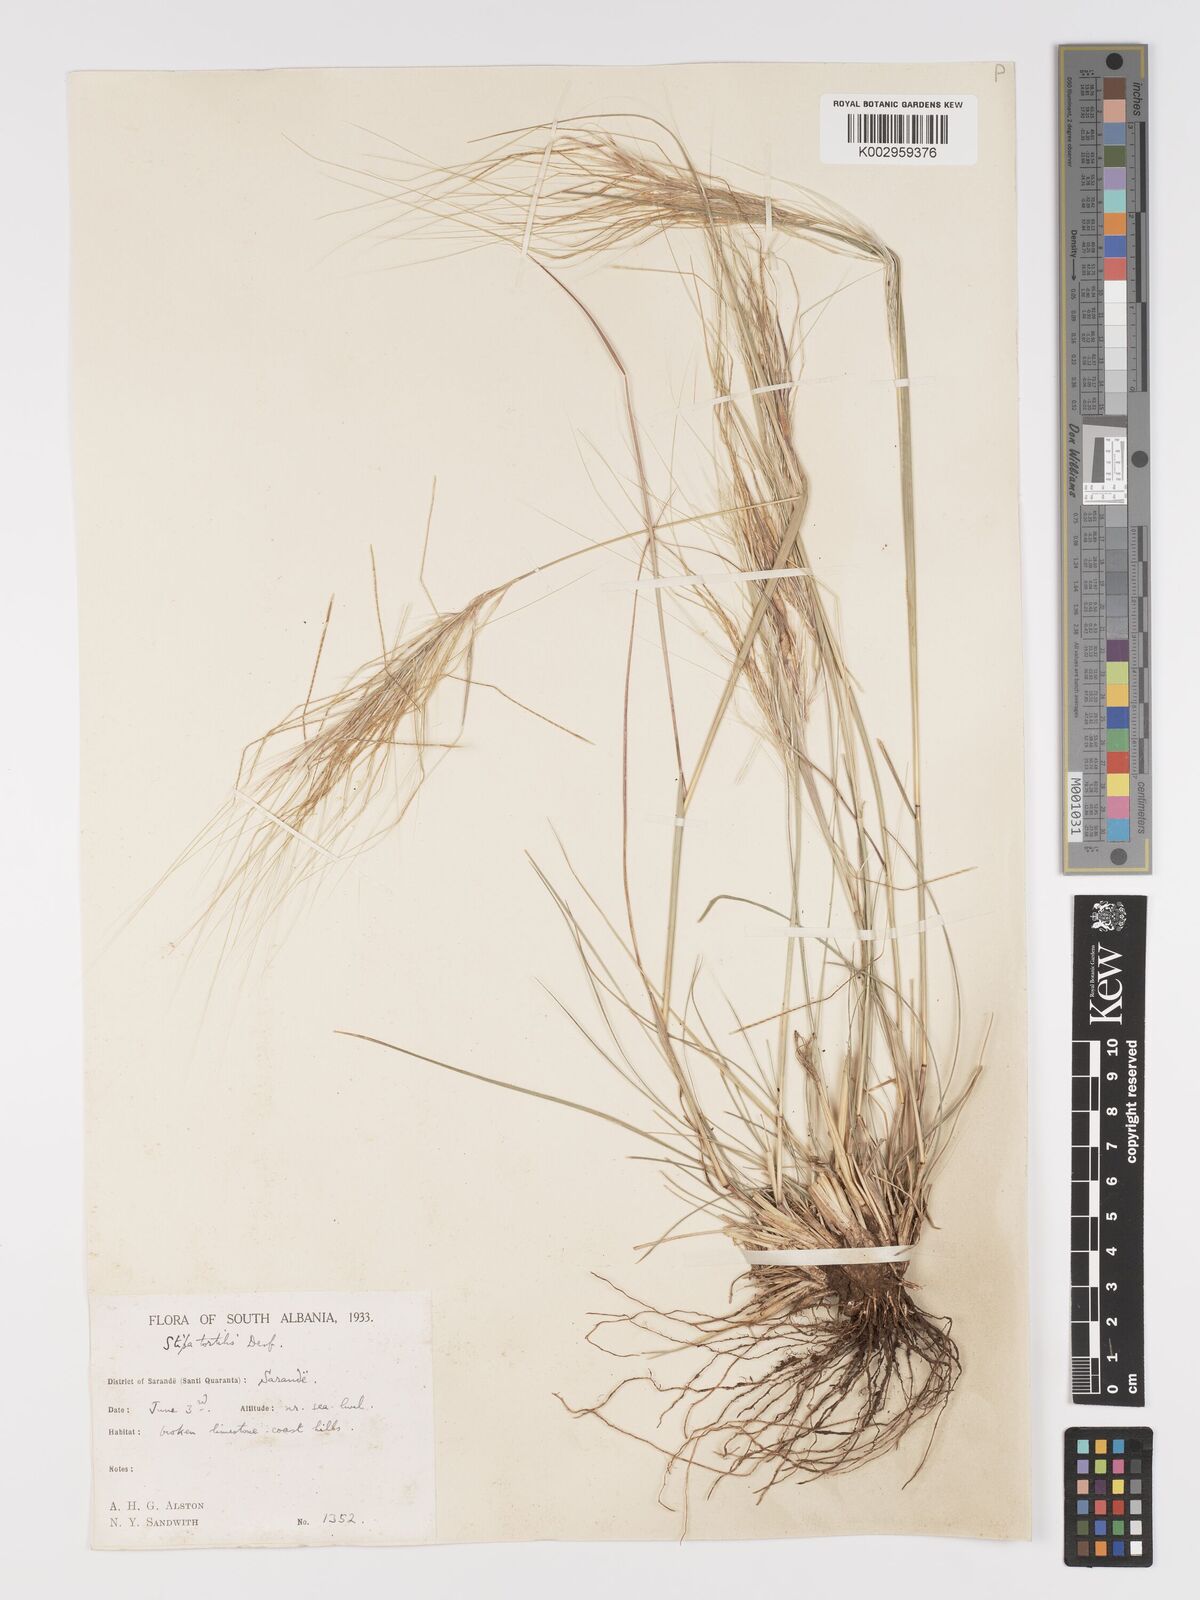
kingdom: Plantae
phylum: Tracheophyta
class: Liliopsida
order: Poales
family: Poaceae
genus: Stipellula
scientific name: Stipellula capensis
